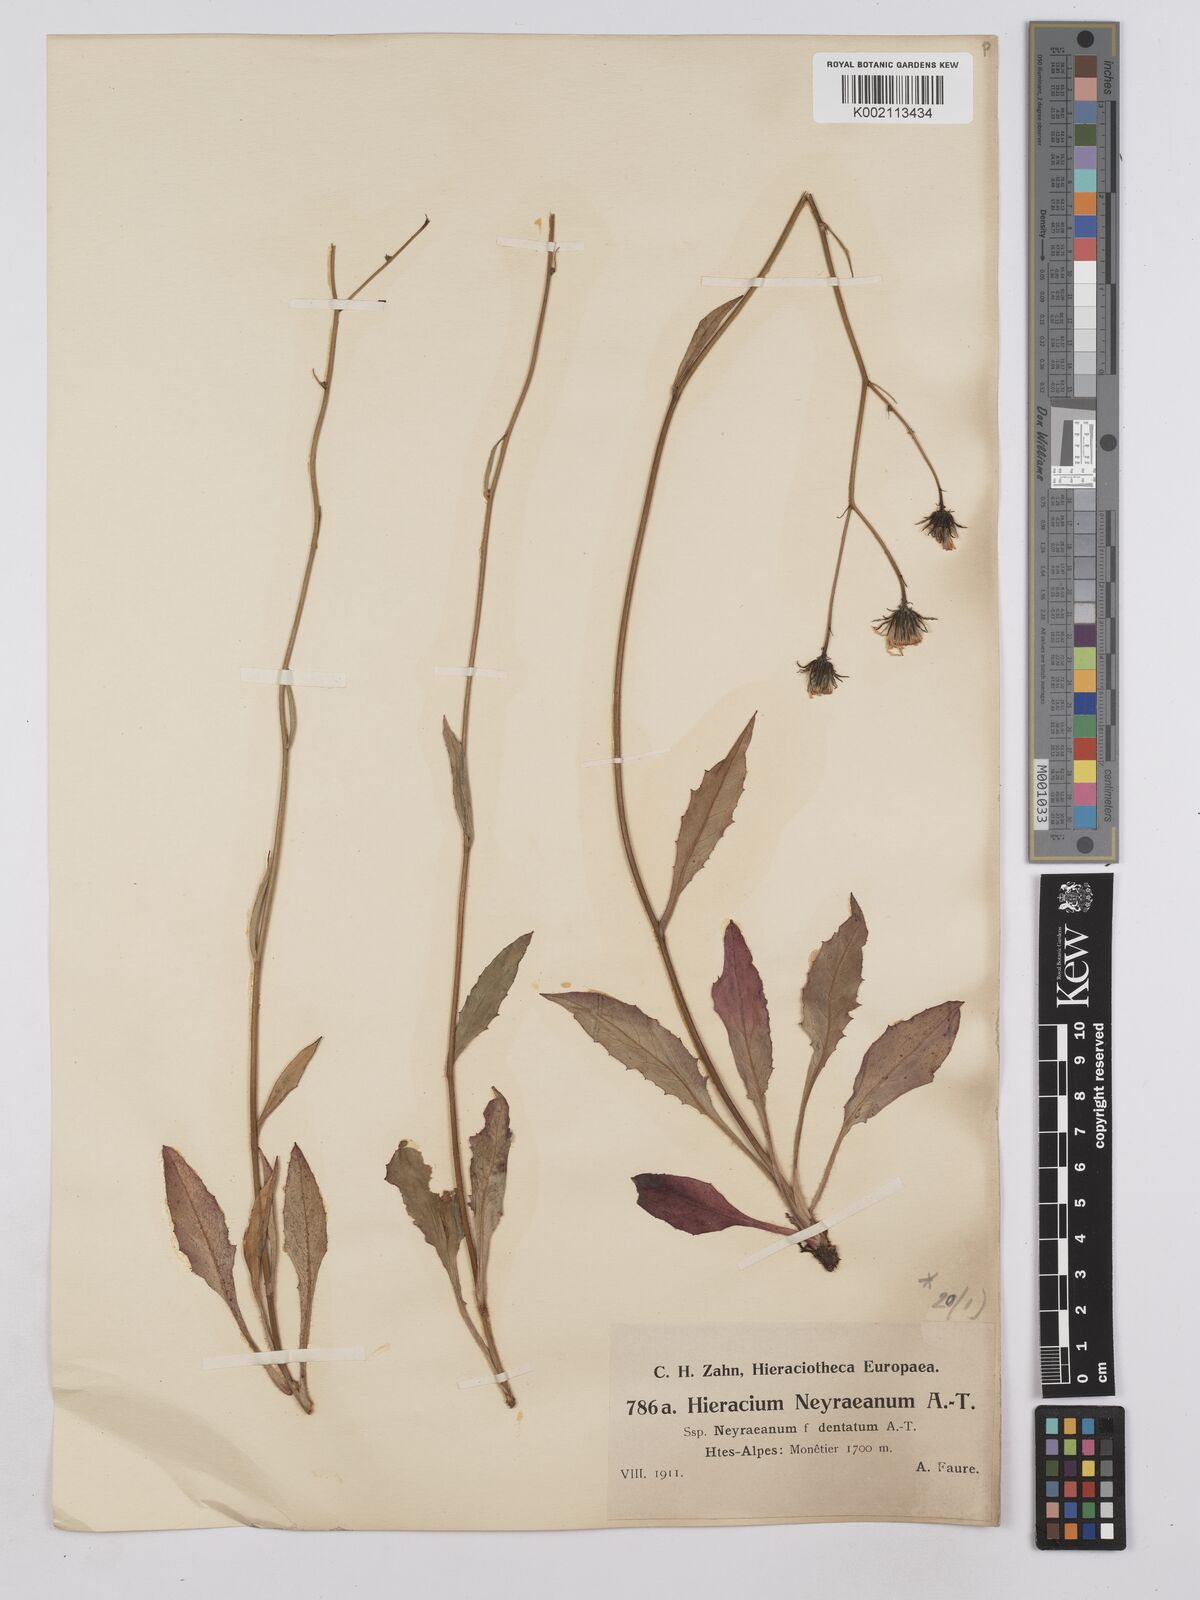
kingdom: Plantae
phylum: Tracheophyta
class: Magnoliopsida
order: Asterales
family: Asteraceae
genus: Hieracium
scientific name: Hieracium neyranum
